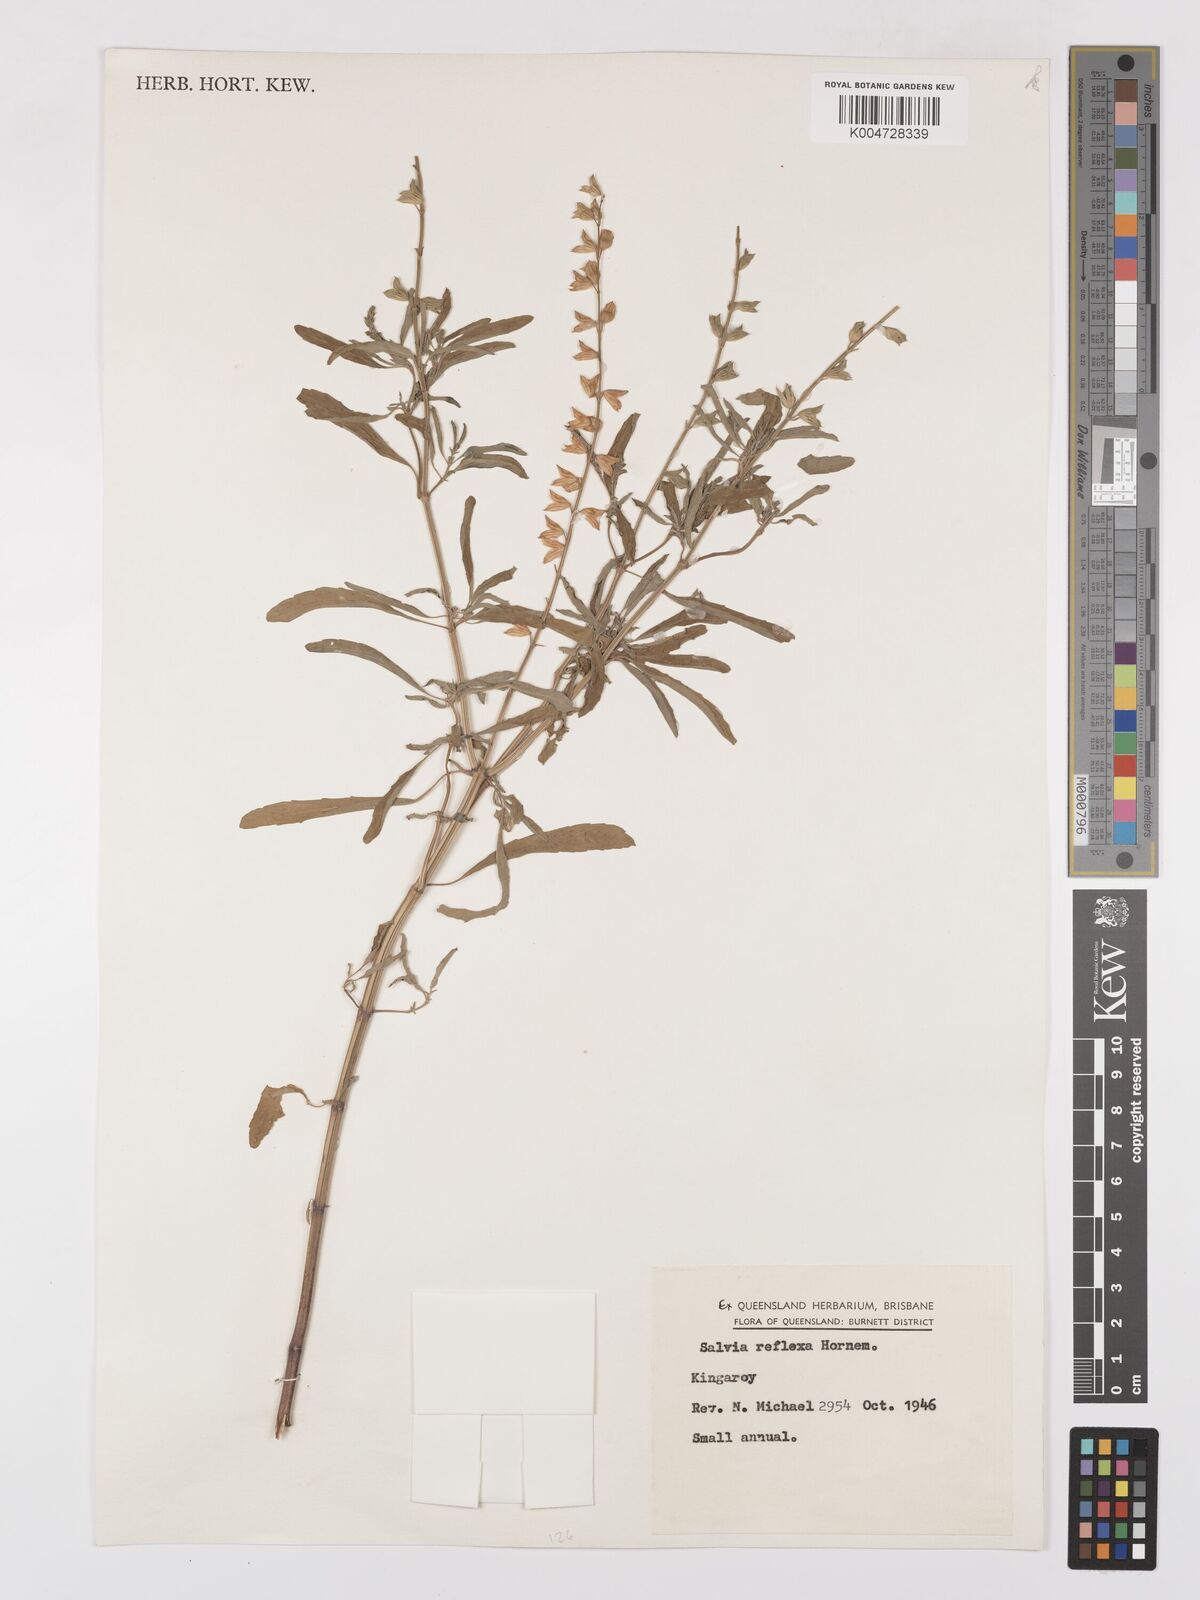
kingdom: Plantae
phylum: Tracheophyta
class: Magnoliopsida
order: Lamiales
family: Lamiaceae
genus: Salvia
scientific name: Salvia reflexa
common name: Mintweed
